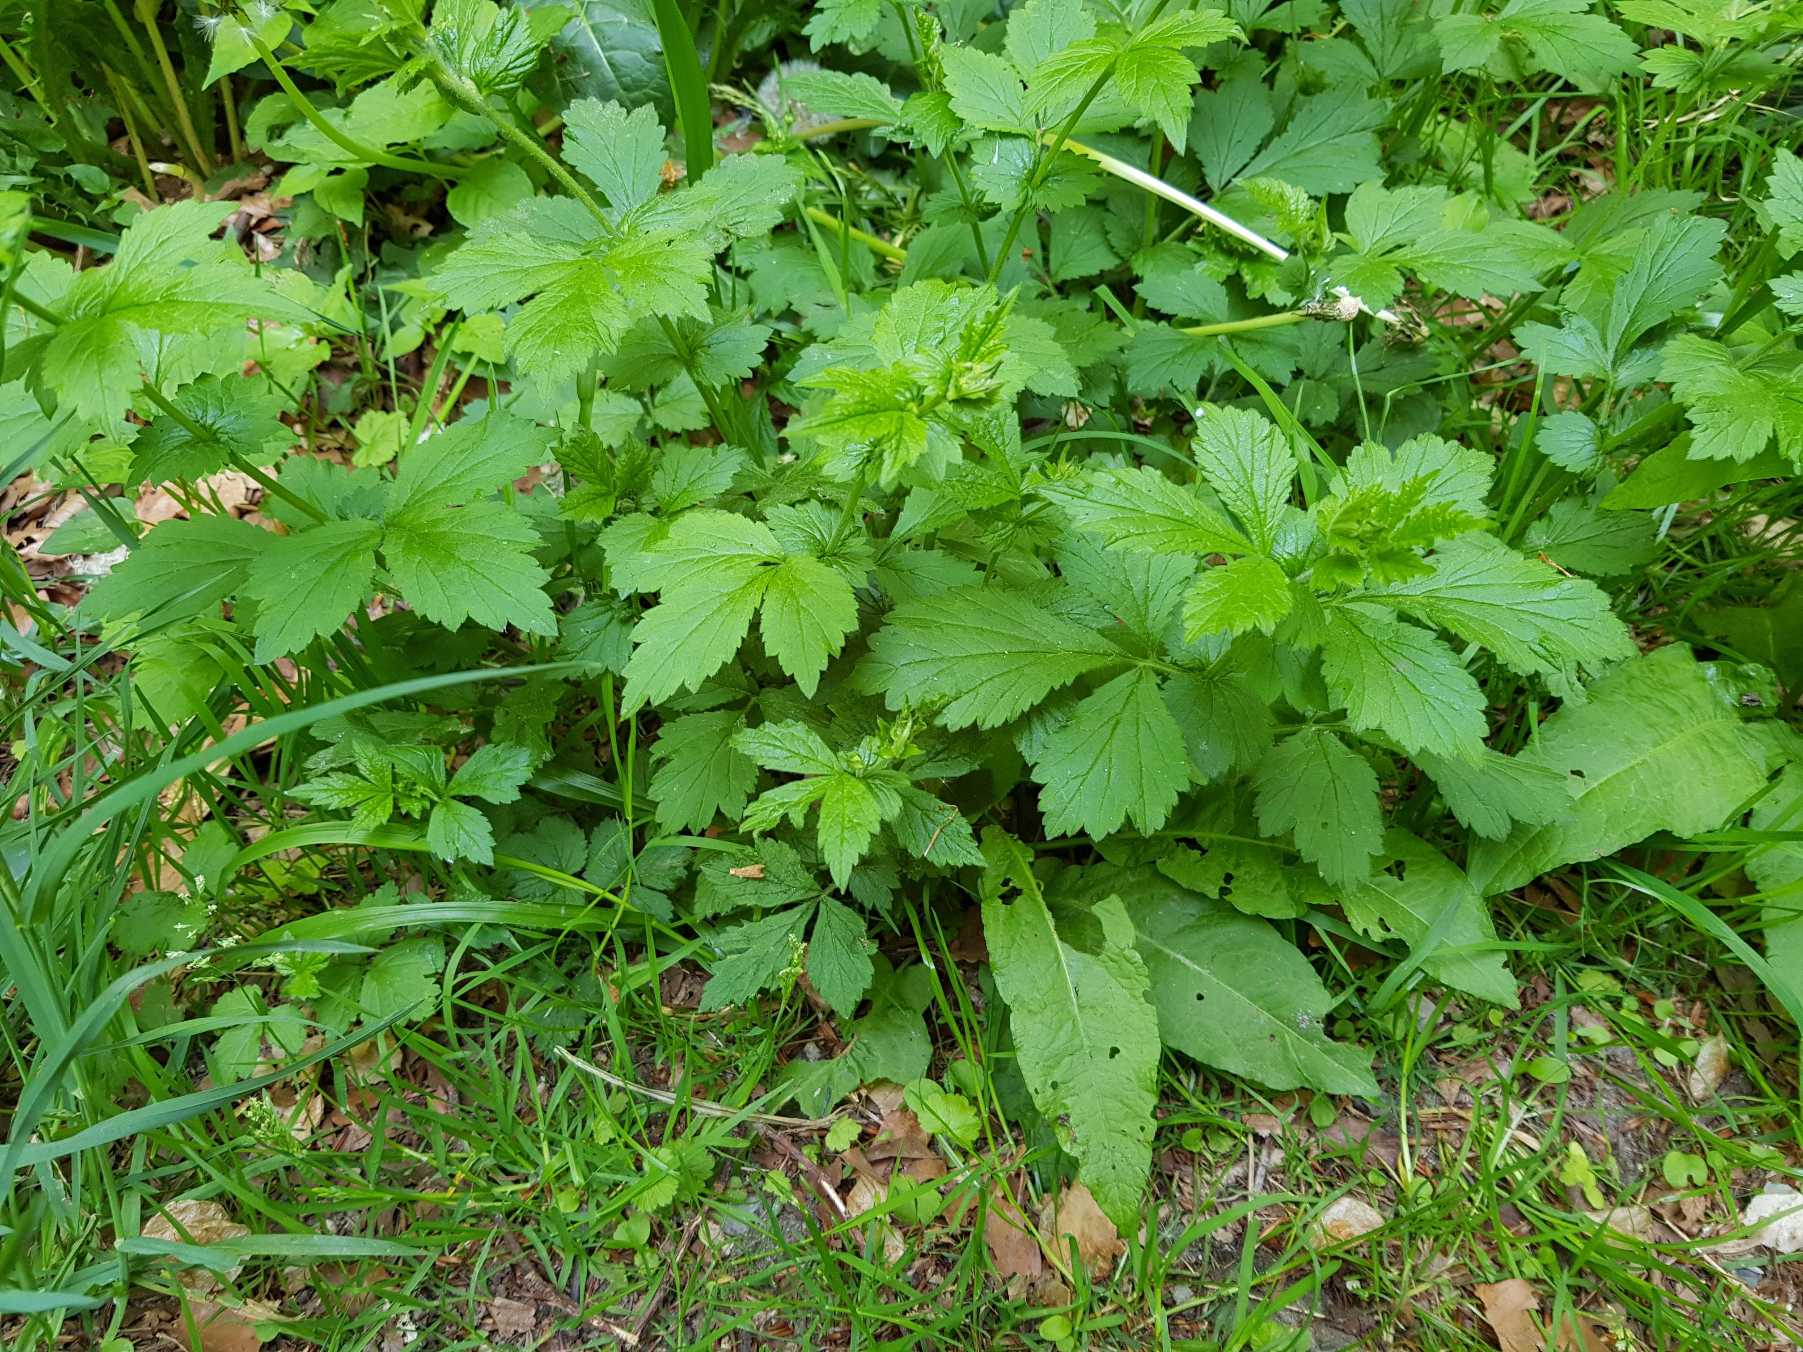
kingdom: Plantae
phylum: Tracheophyta
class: Magnoliopsida
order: Rosales
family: Rosaceae
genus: Geum
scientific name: Geum urbanum
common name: Feber-nellikerod
